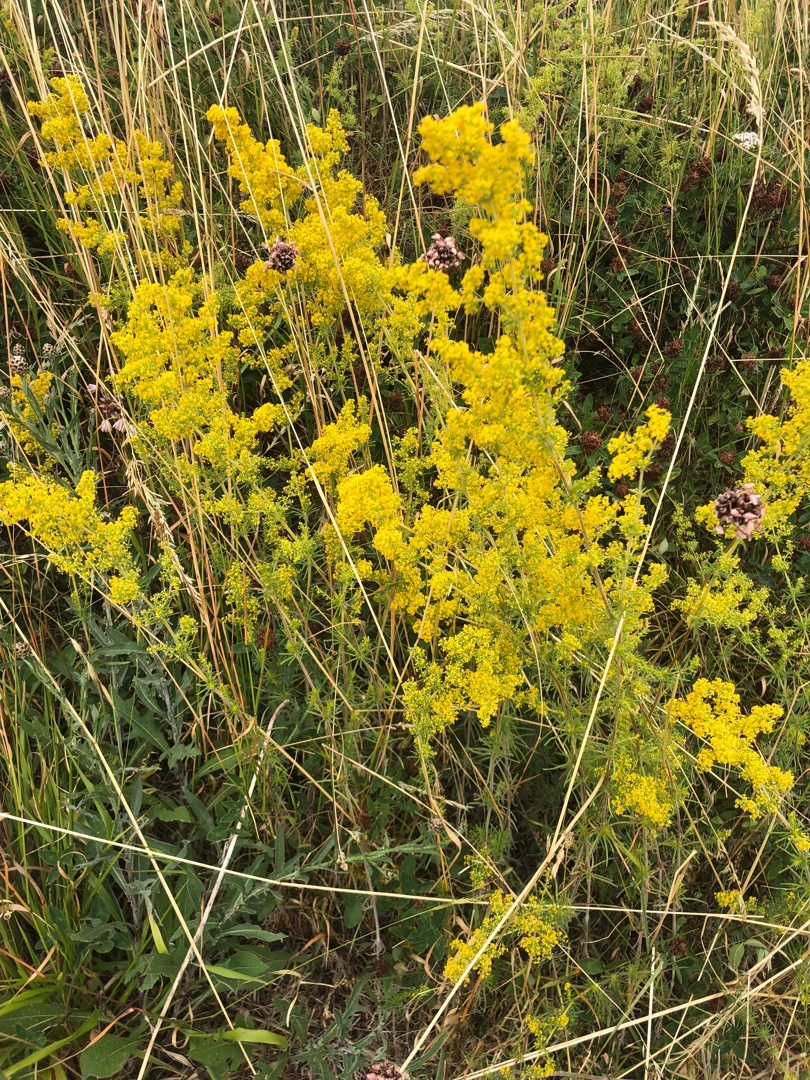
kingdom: Plantae
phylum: Tracheophyta
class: Magnoliopsida
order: Gentianales
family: Rubiaceae
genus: Galium
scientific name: Galium verum
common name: Gul snerre
